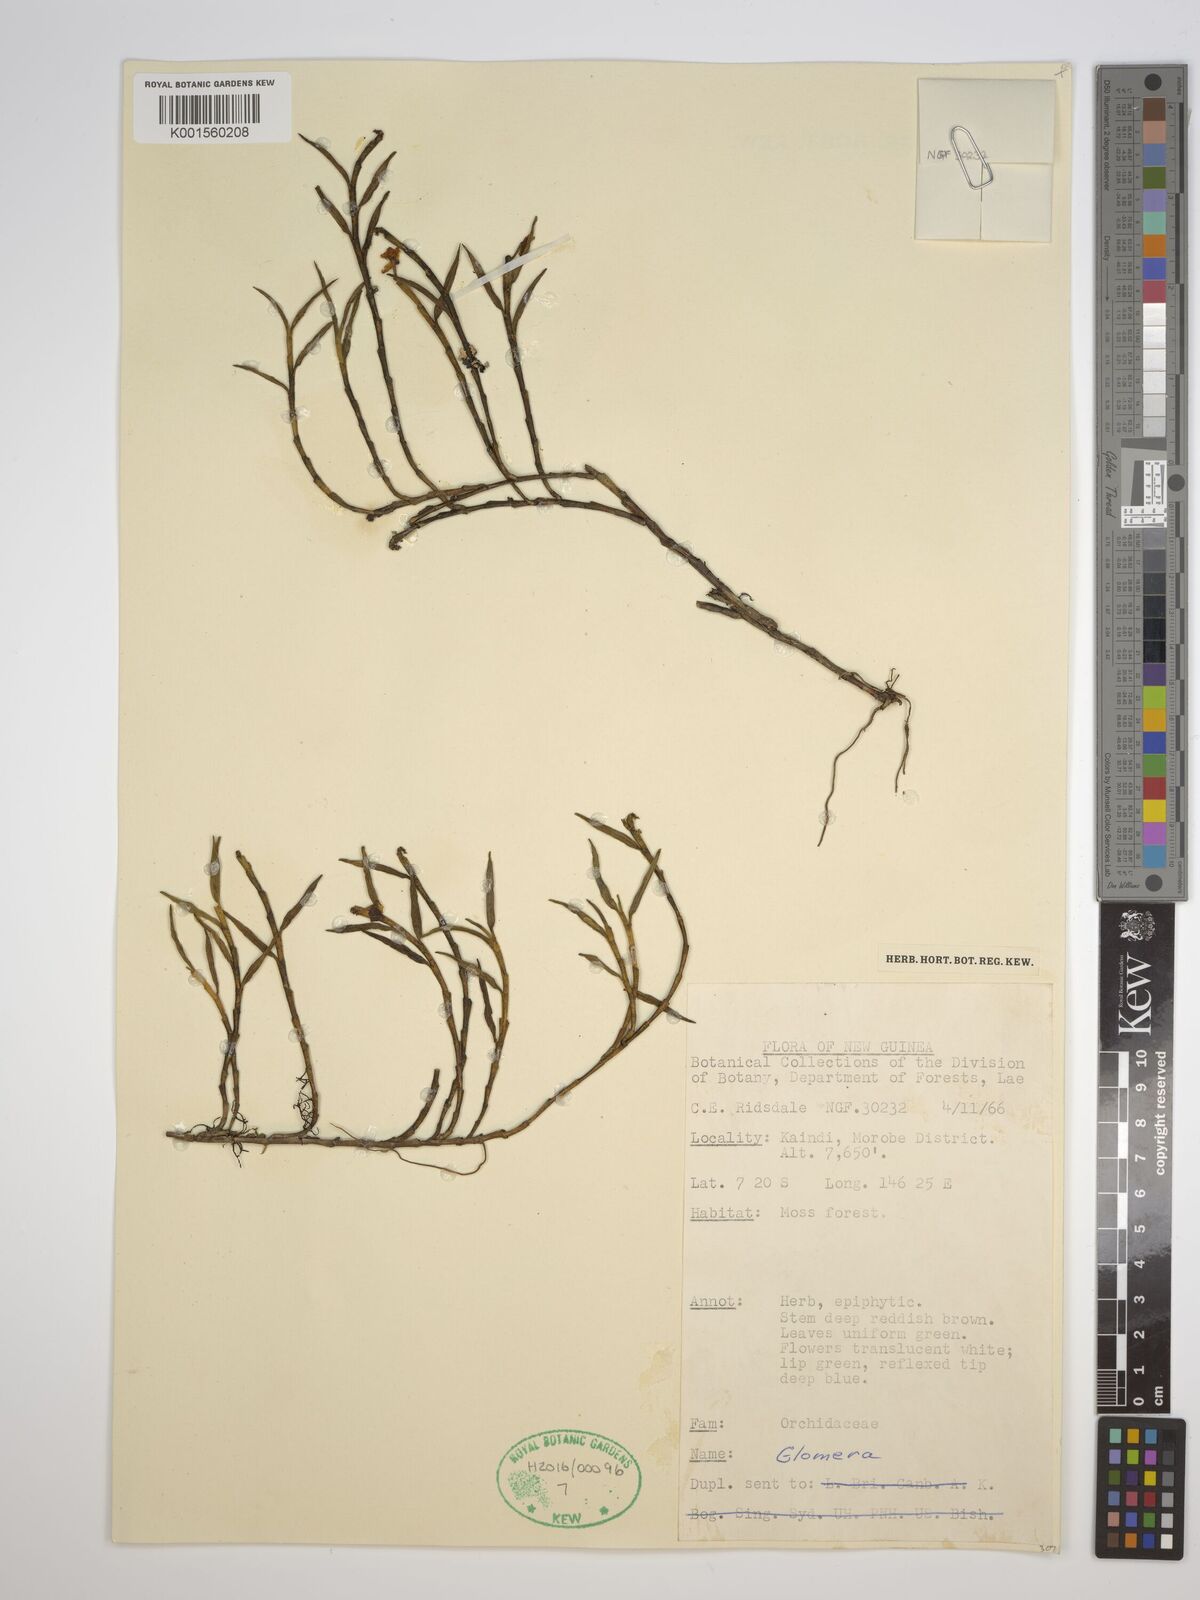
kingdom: Plantae
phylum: Tracheophyta
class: Liliopsida
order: Asparagales
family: Orchidaceae
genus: Glomera
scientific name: Glomera
